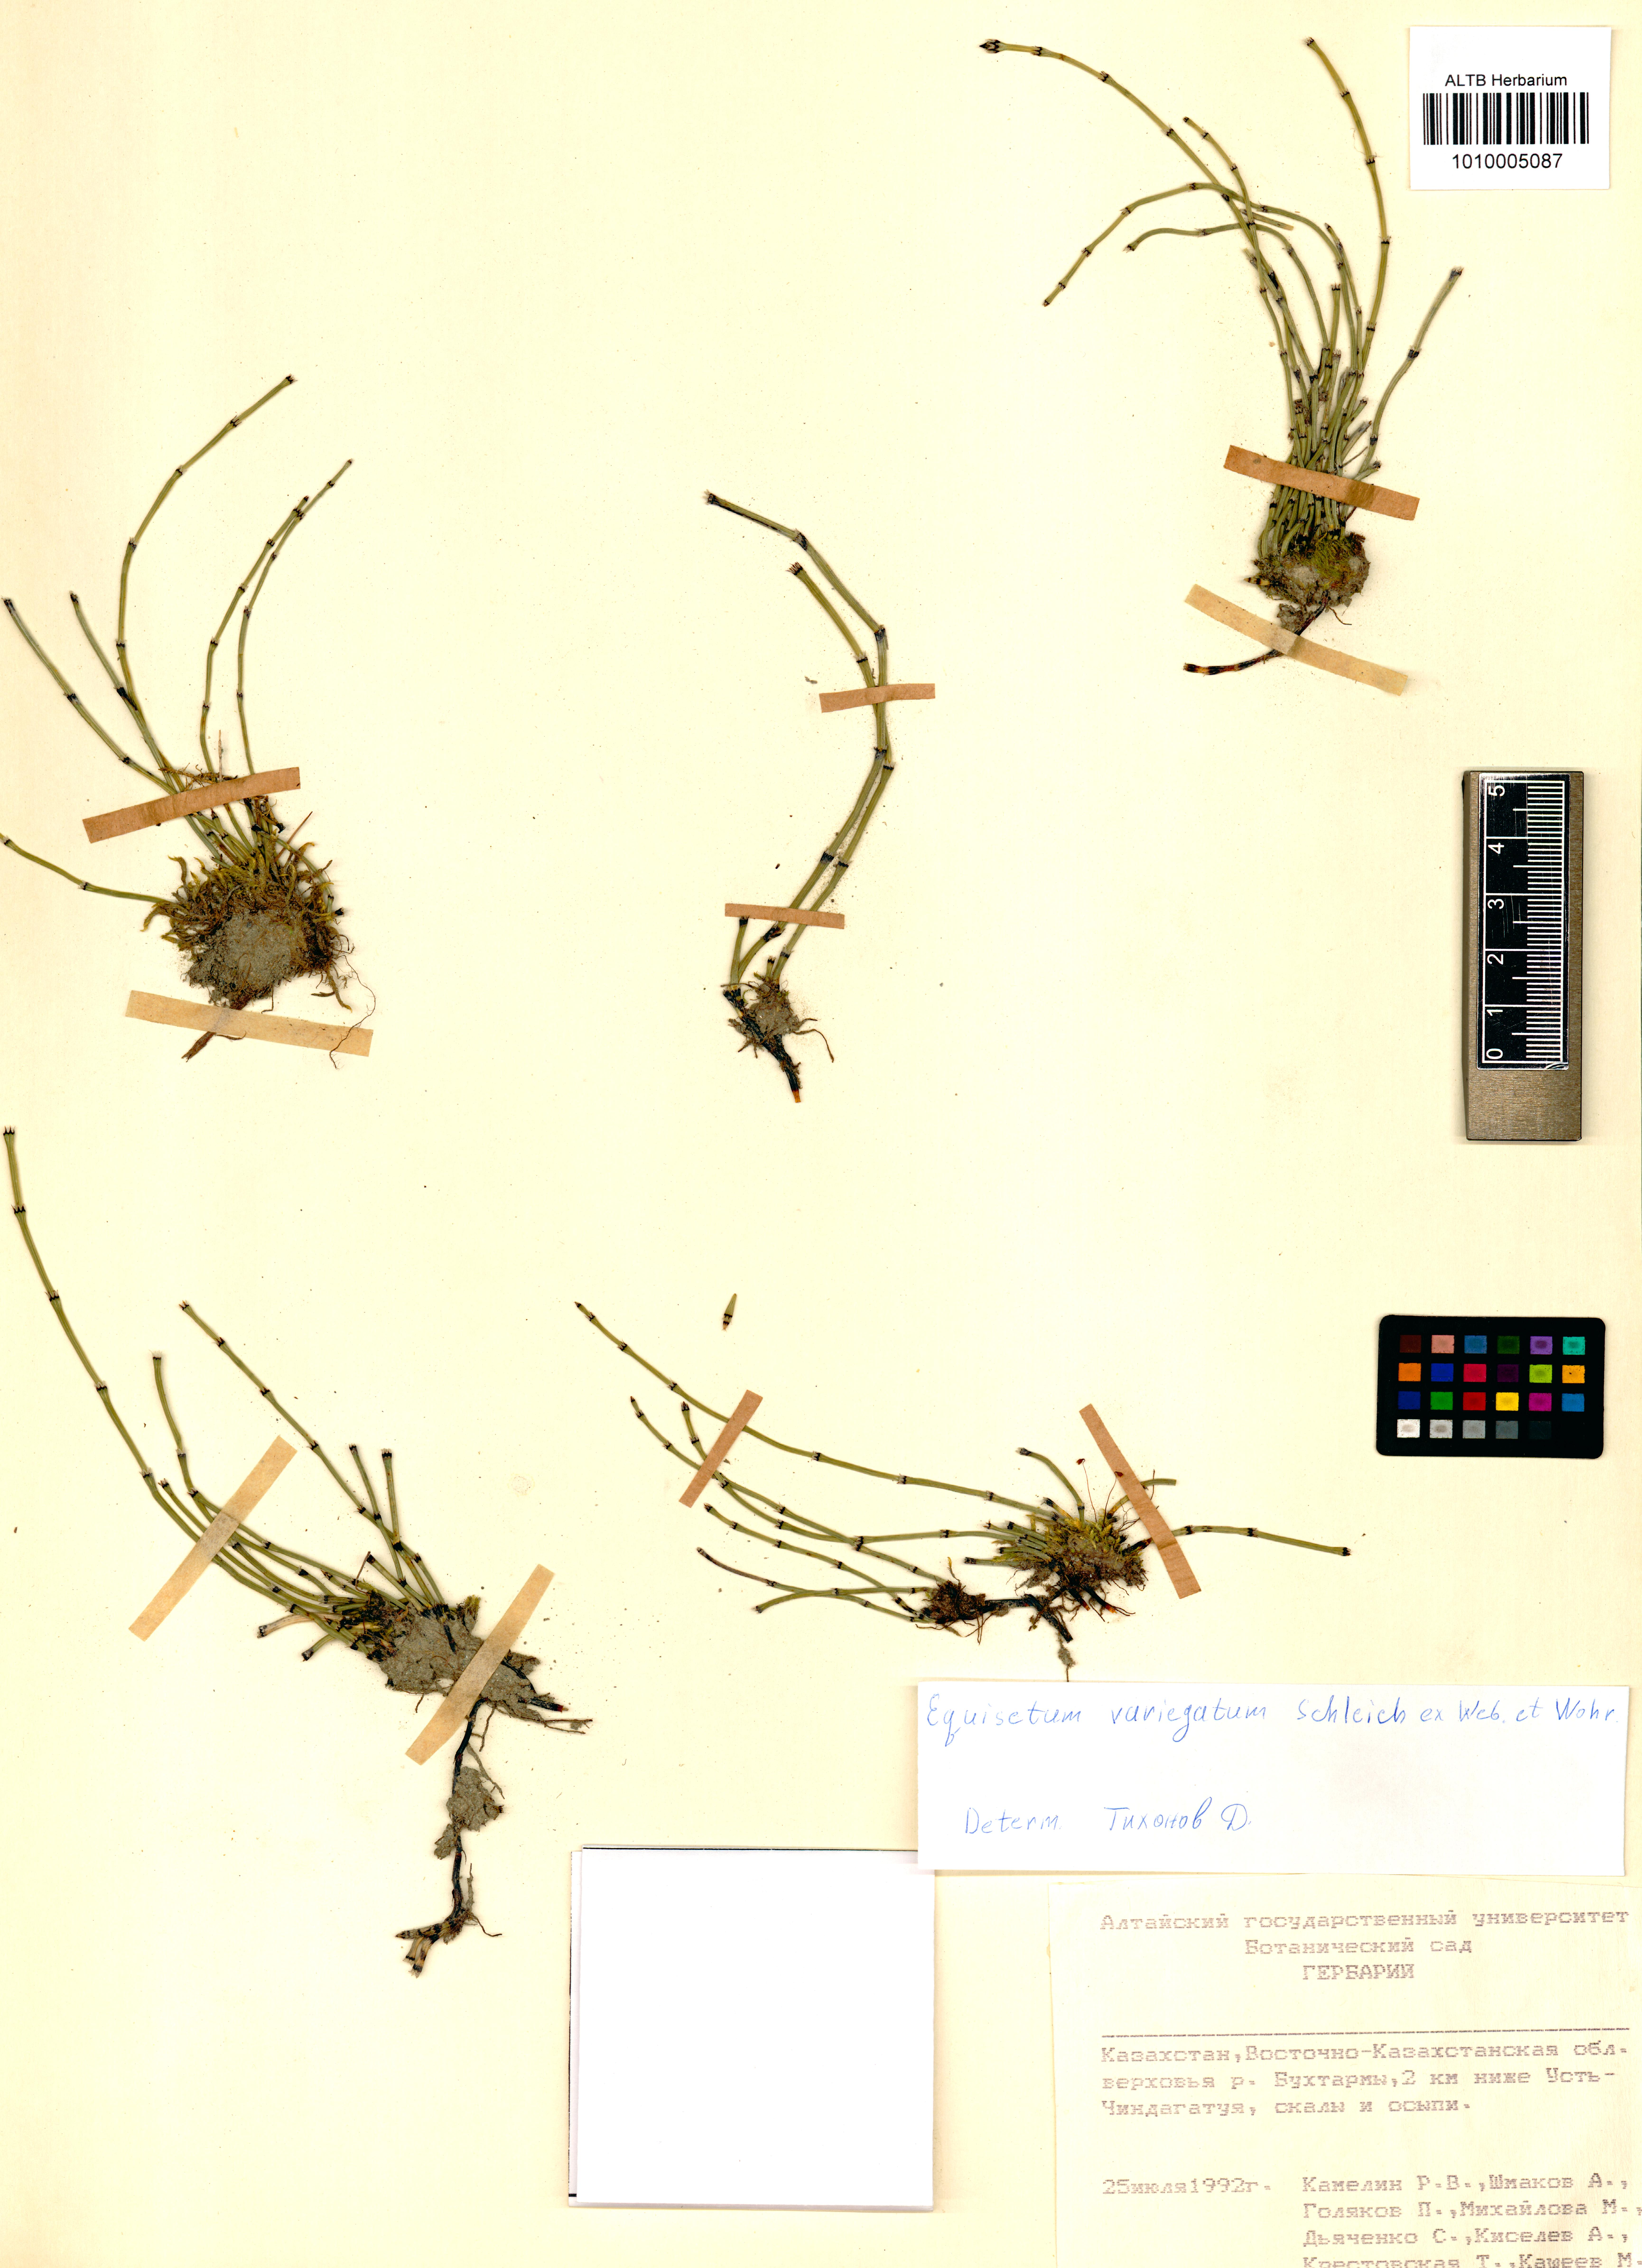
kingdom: Plantae
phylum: Tracheophyta
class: Polypodiopsida
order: Equisetales
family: Equisetaceae
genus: Equisetum
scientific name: Equisetum variegatum
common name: Variegated horsetail
